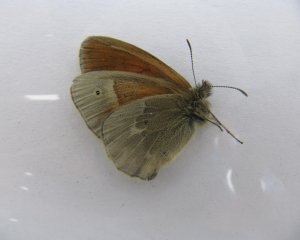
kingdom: Animalia
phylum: Arthropoda
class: Insecta
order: Lepidoptera
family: Nymphalidae
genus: Coenonympha
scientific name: Coenonympha tullia
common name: Large Heath
